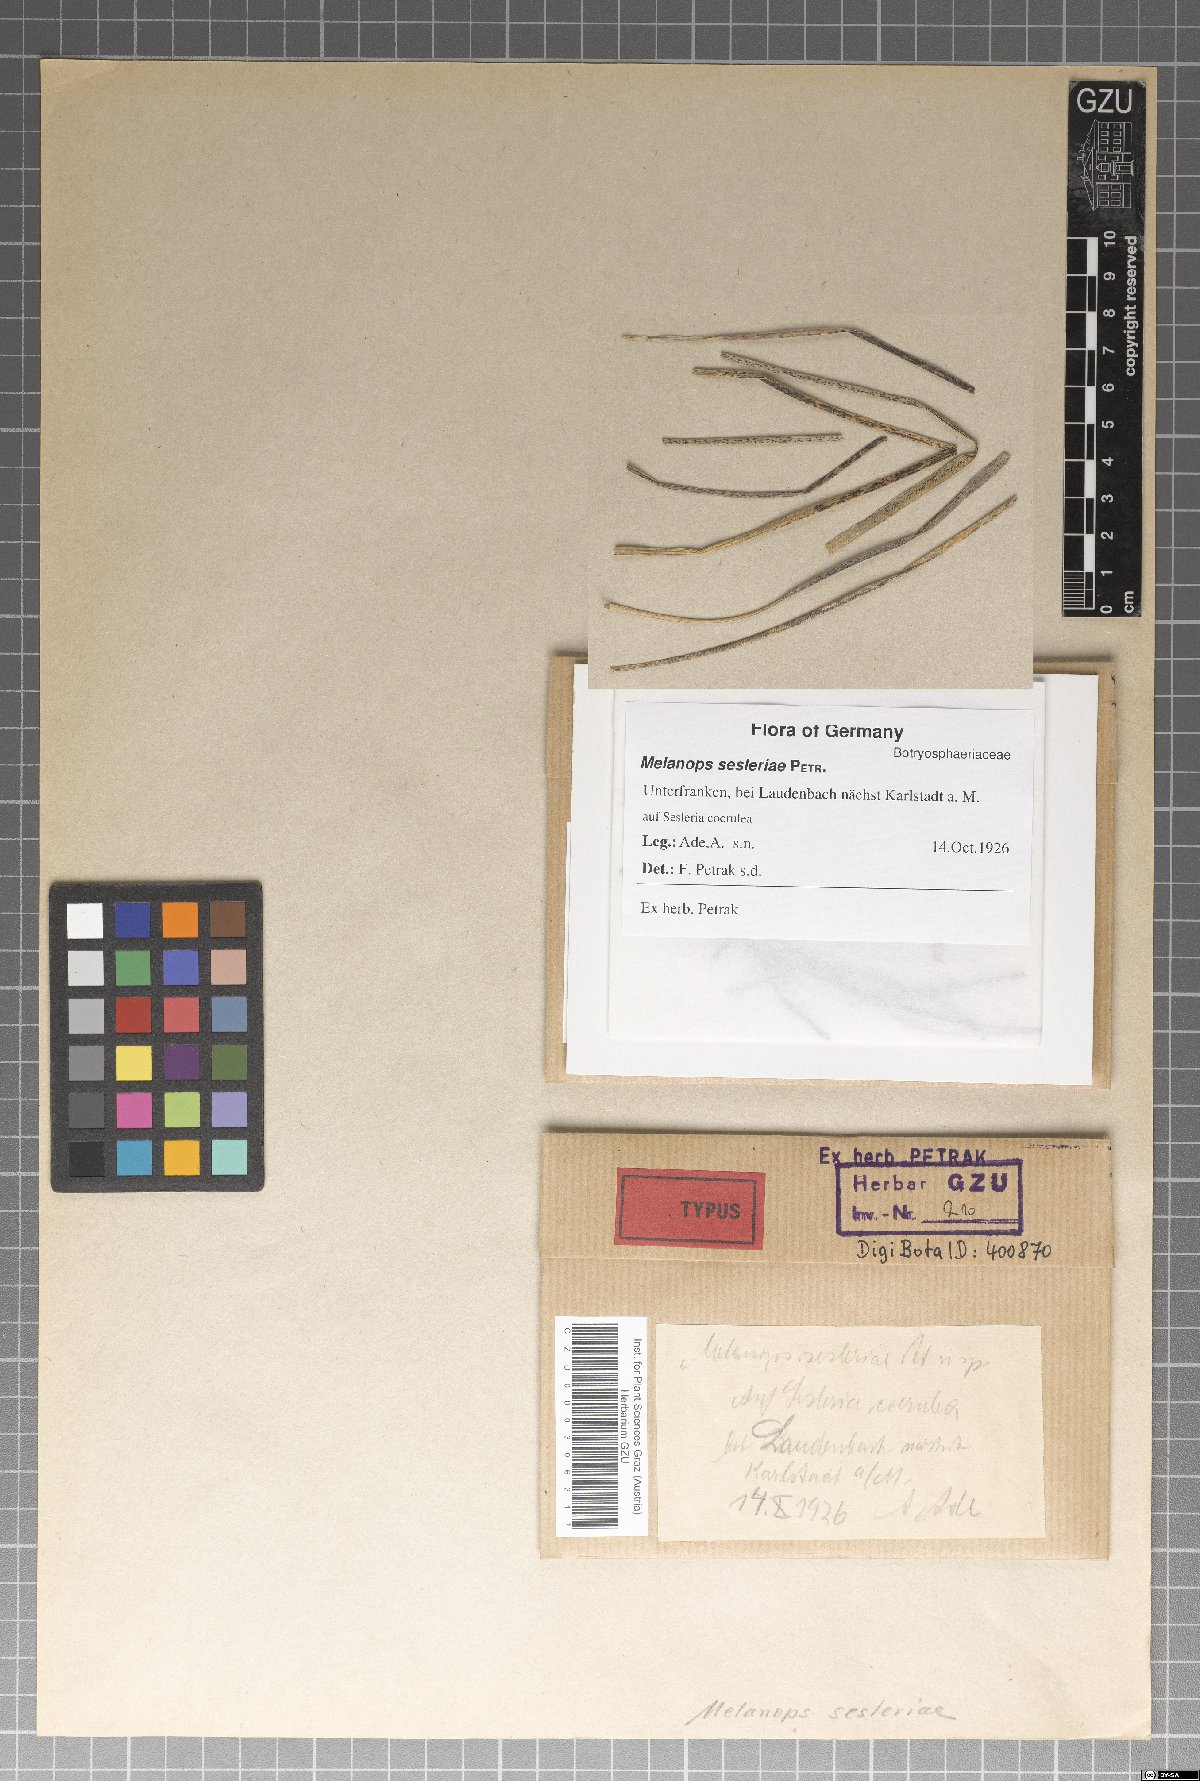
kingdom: Fungi
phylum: Ascomycota
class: Dothideomycetes
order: Botryosphaeriales
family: Botryosphaeriaceae
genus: Melanops
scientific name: Melanops sesleriae
